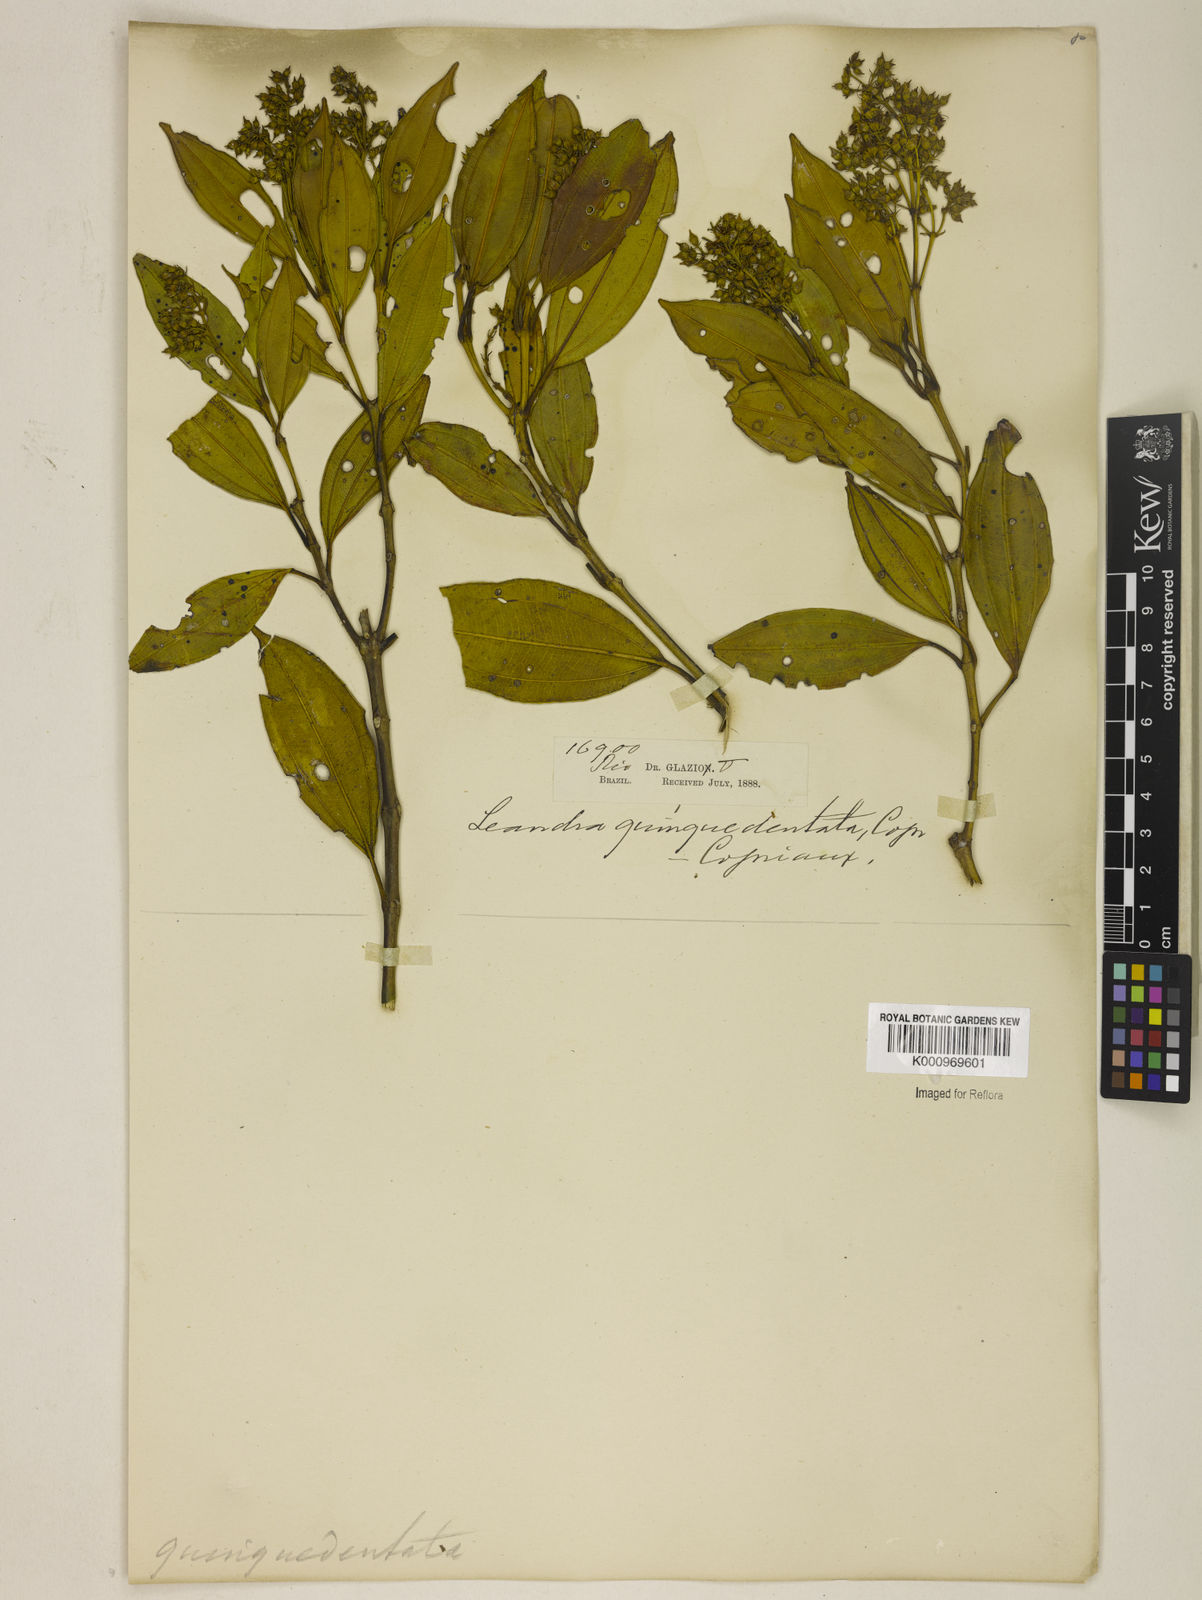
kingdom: Plantae
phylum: Tracheophyta
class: Magnoliopsida
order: Myrtales
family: Melastomataceae
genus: Miconia
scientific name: Miconia quinquedentata
